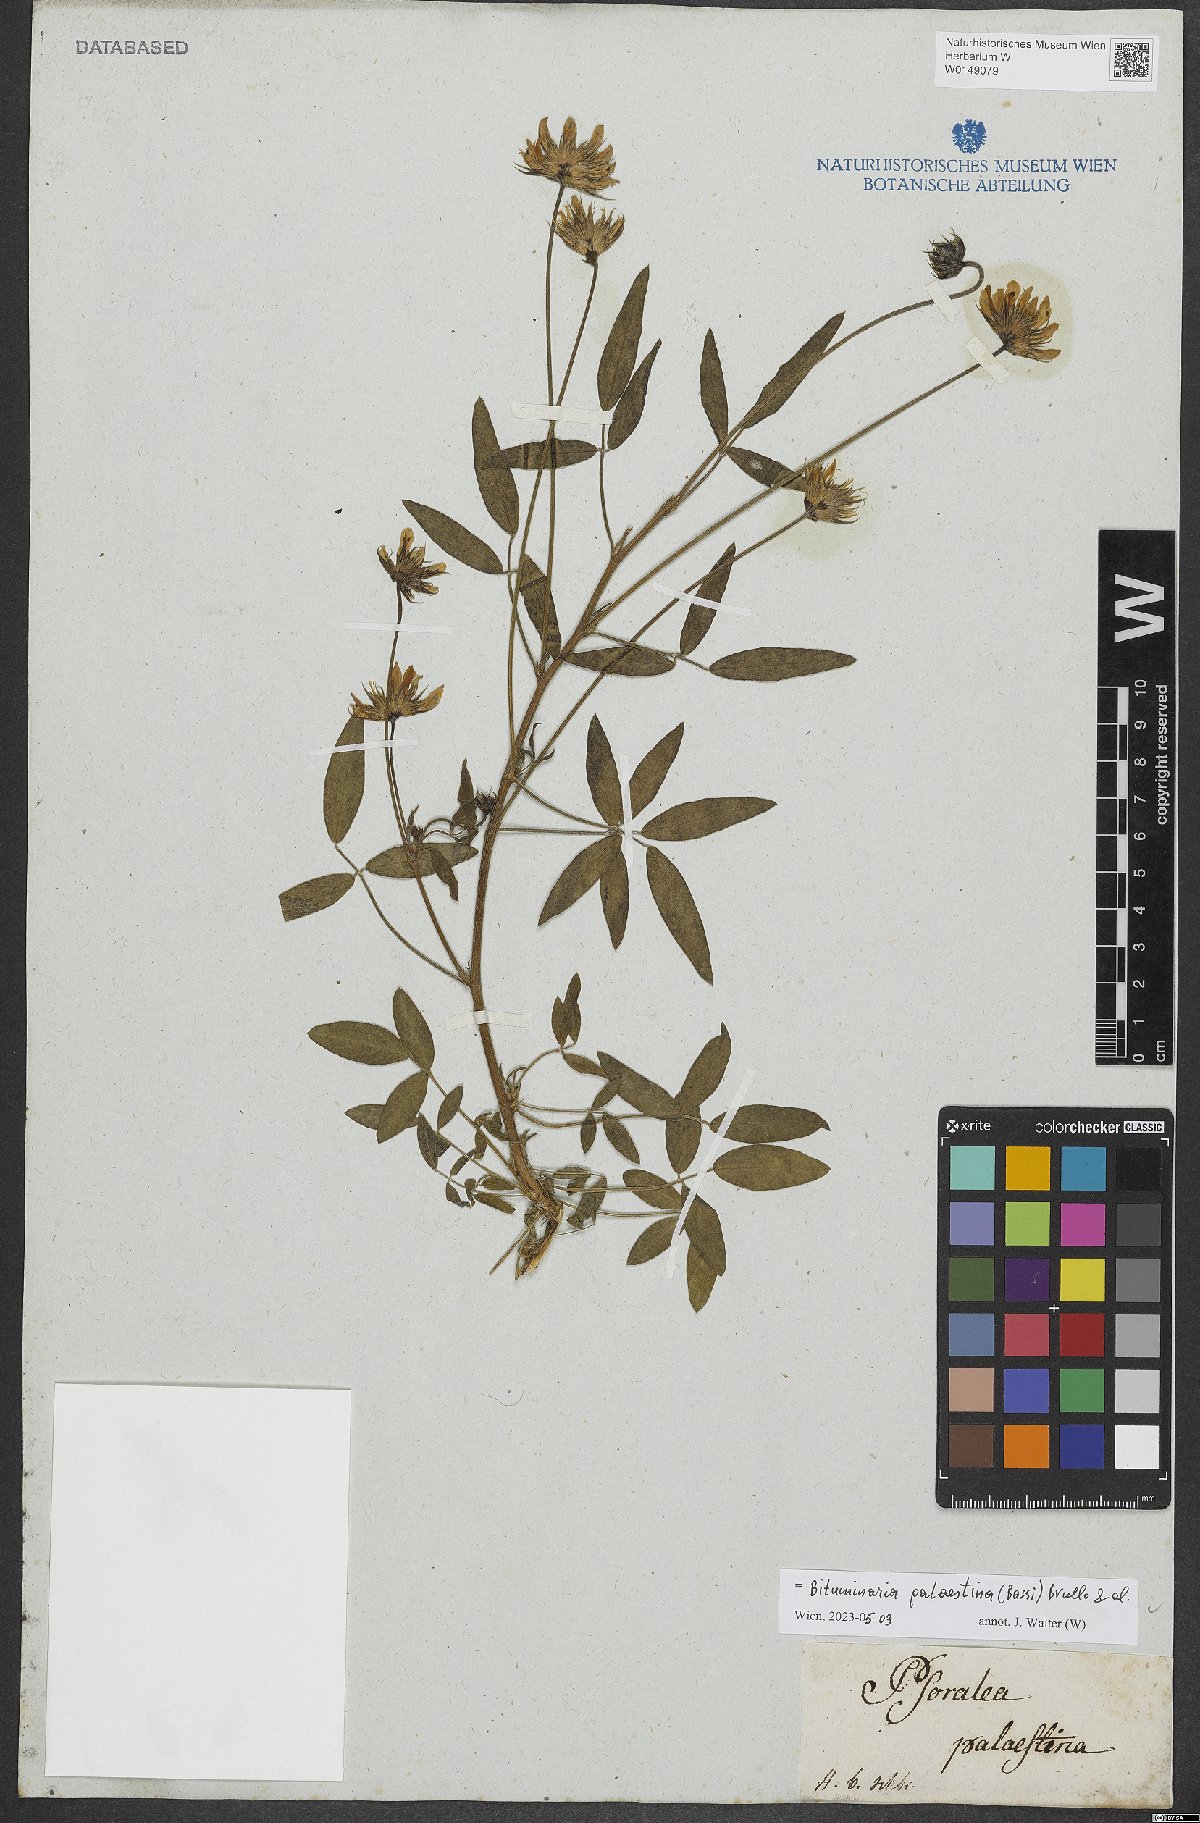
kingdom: Plantae
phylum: Tracheophyta
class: Magnoliopsida
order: Fabales
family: Fabaceae
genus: Bituminaria
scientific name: Bituminaria palaestina
